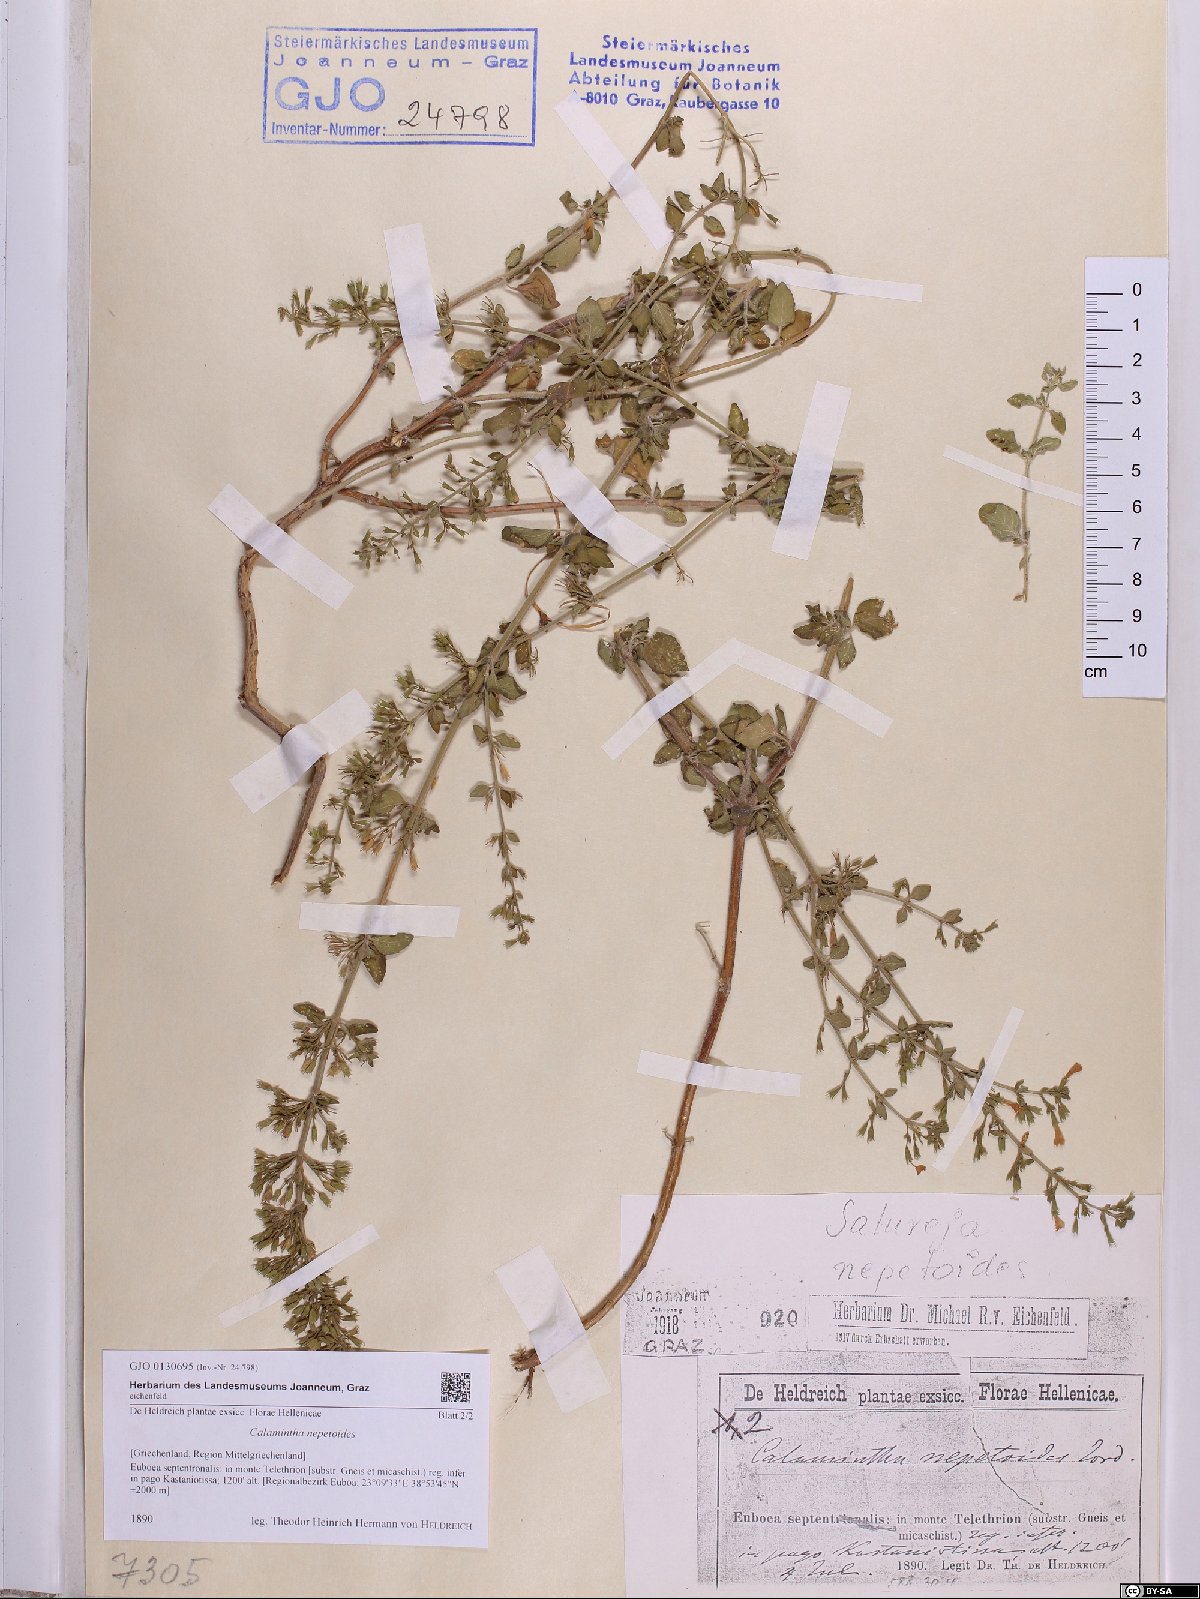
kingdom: Plantae
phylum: Tracheophyta
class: Magnoliopsida
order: Lamiales
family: Lamiaceae
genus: Clinopodium
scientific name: Clinopodium nepeta
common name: Lesser calamint
